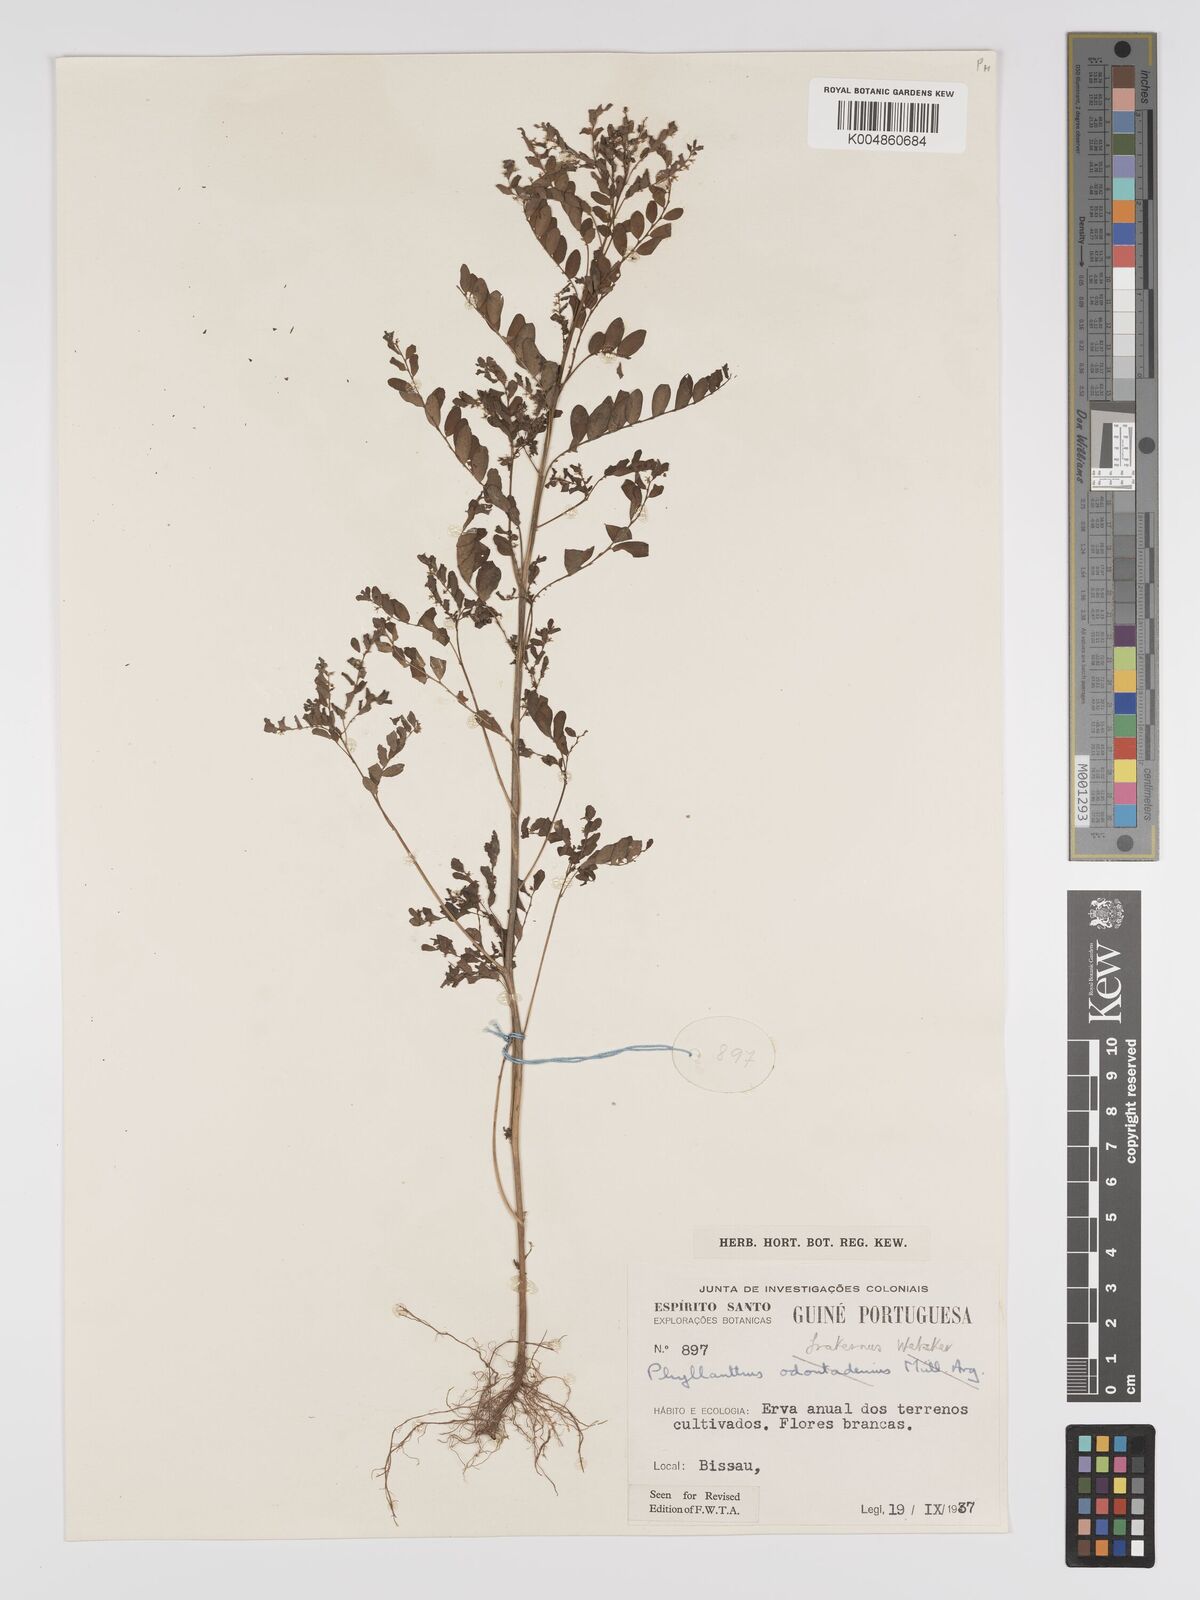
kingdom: Plantae
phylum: Tracheophyta
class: Magnoliopsida
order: Malpighiales
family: Phyllanthaceae
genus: Phyllanthus
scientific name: Phyllanthus fraternus
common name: Gulf leaf-flower
